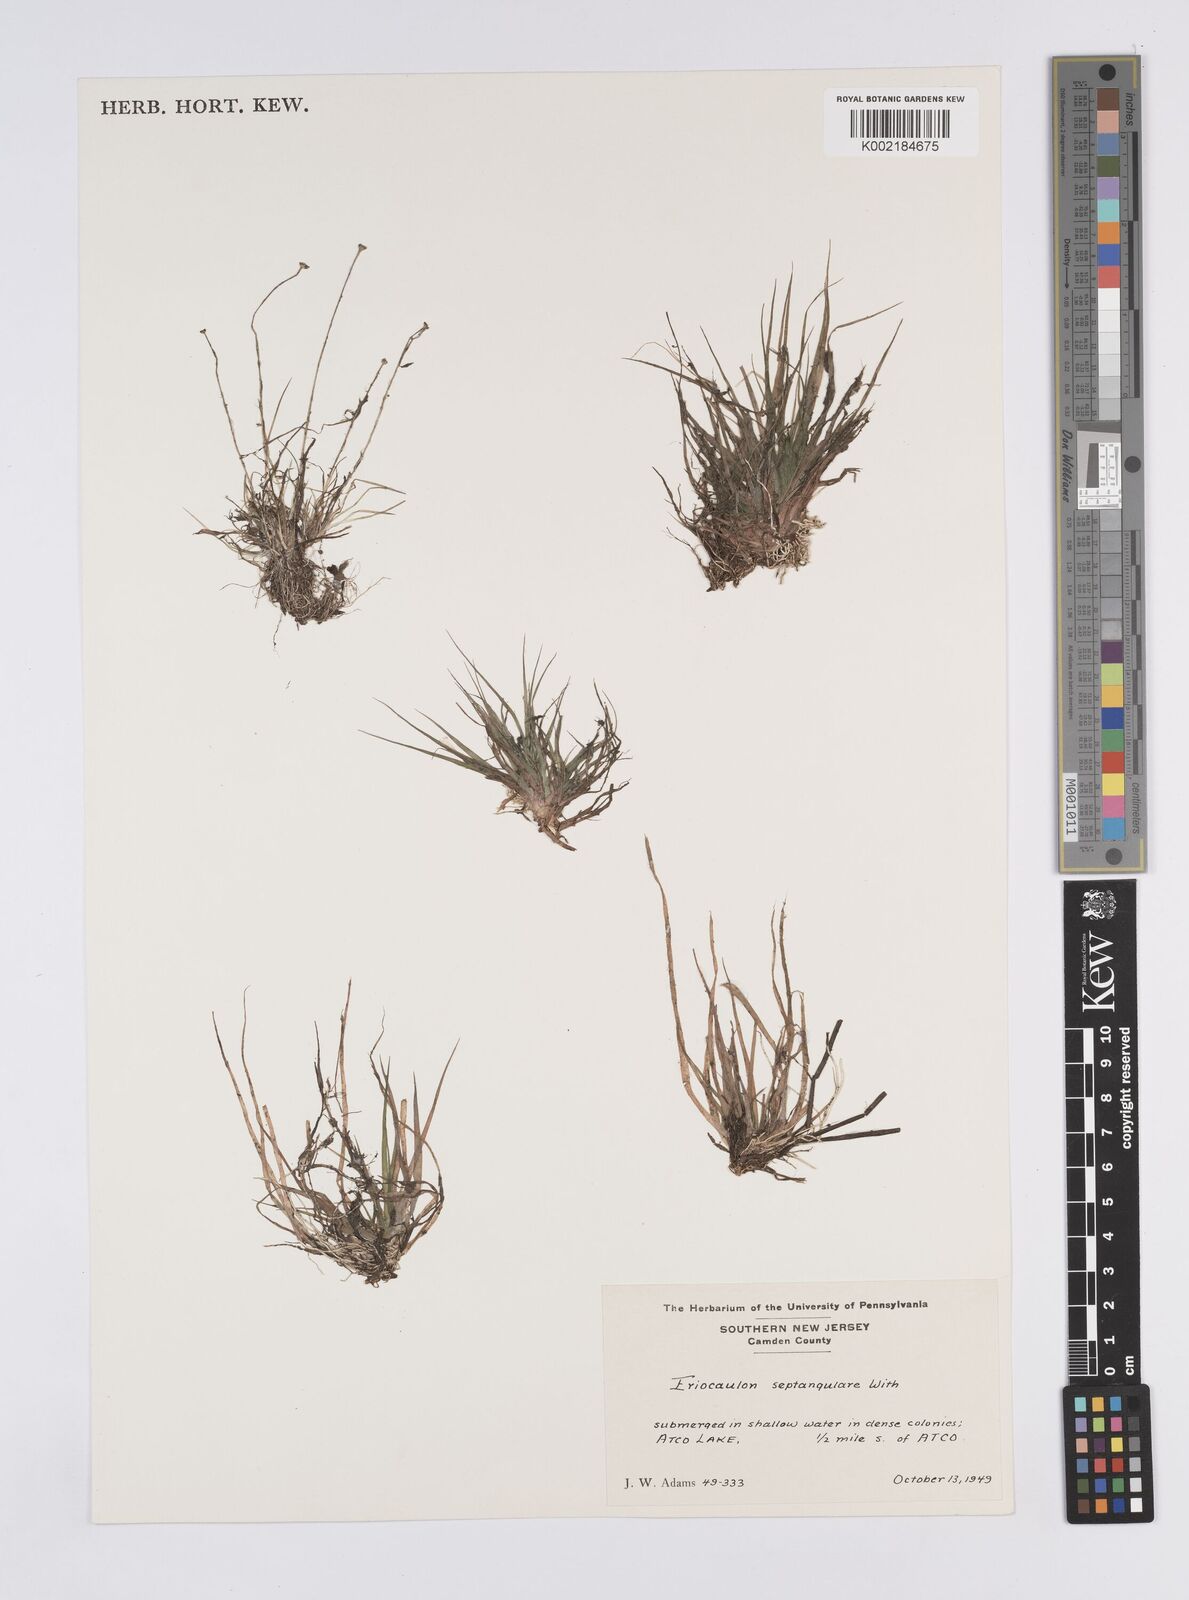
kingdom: Plantae
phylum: Tracheophyta
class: Liliopsida
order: Poales
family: Eriocaulaceae
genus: Eriocaulon
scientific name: Eriocaulon aquaticum
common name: Pipewort
